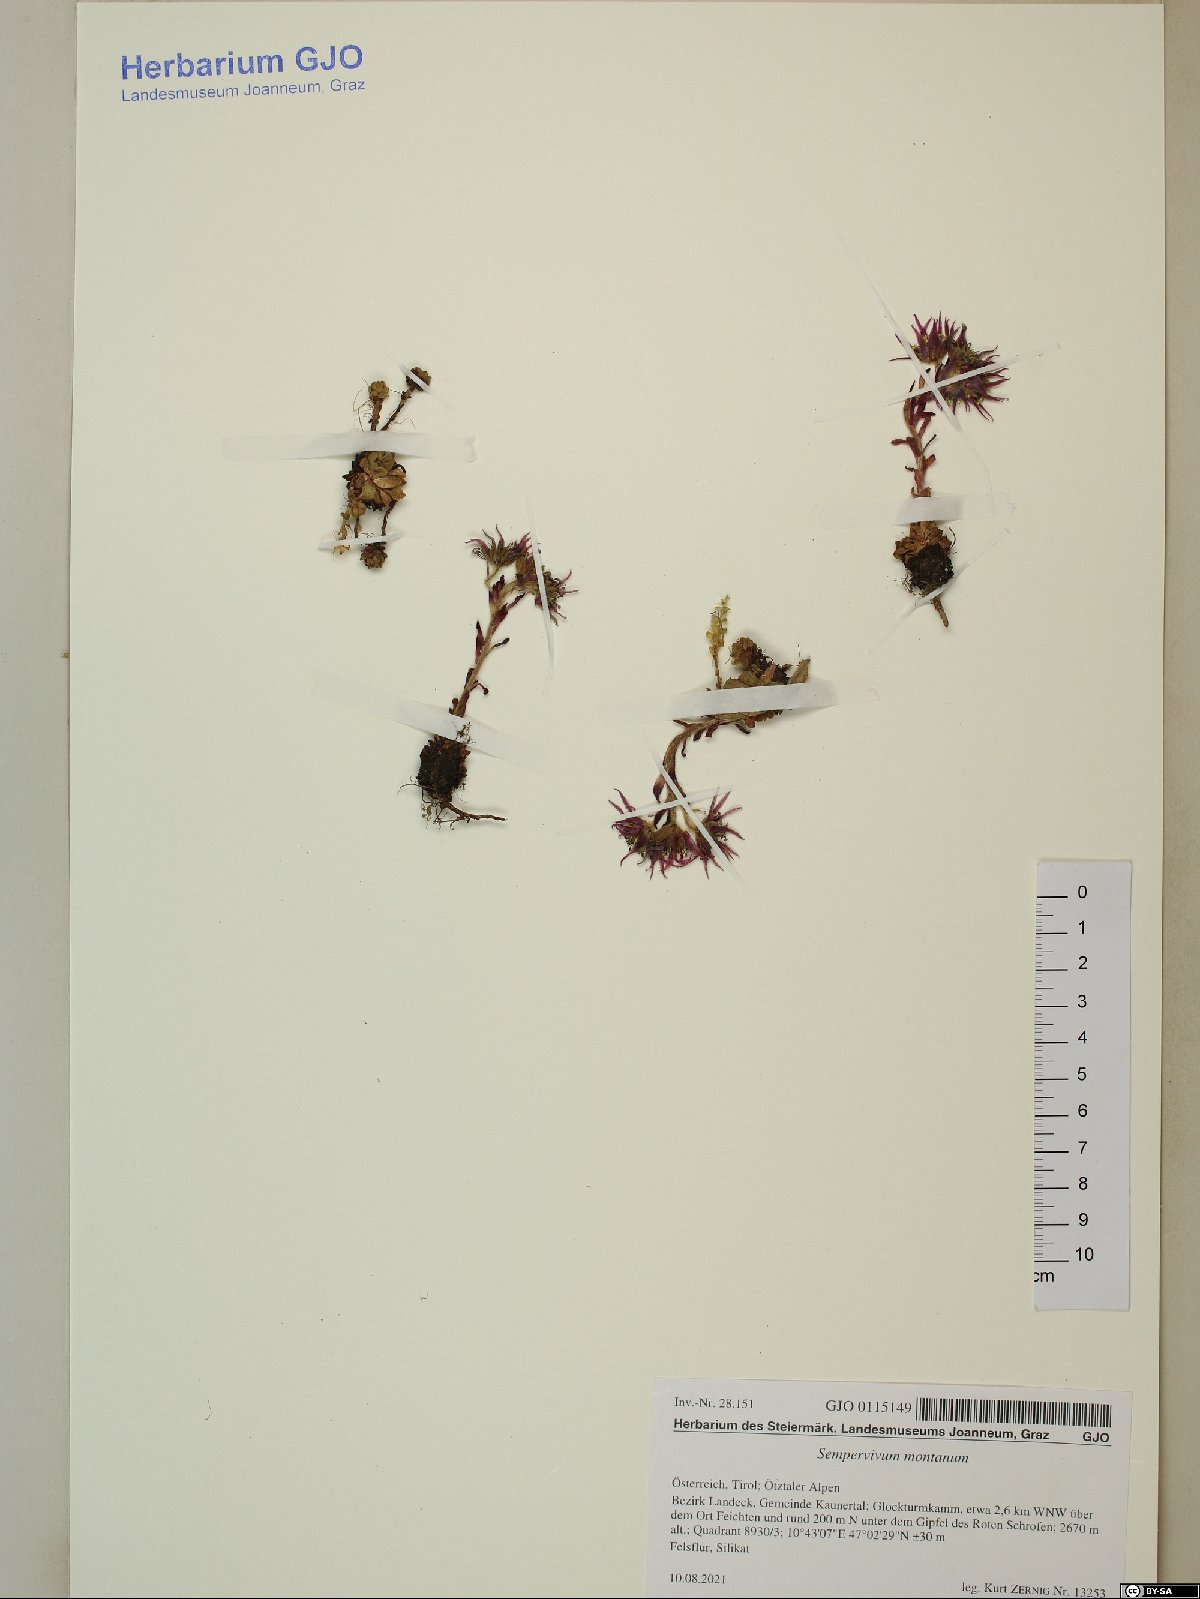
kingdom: Plantae
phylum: Tracheophyta
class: Magnoliopsida
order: Saxifragales
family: Crassulaceae
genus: Sempervivum
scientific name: Sempervivum montanum
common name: Mountain house-leek
